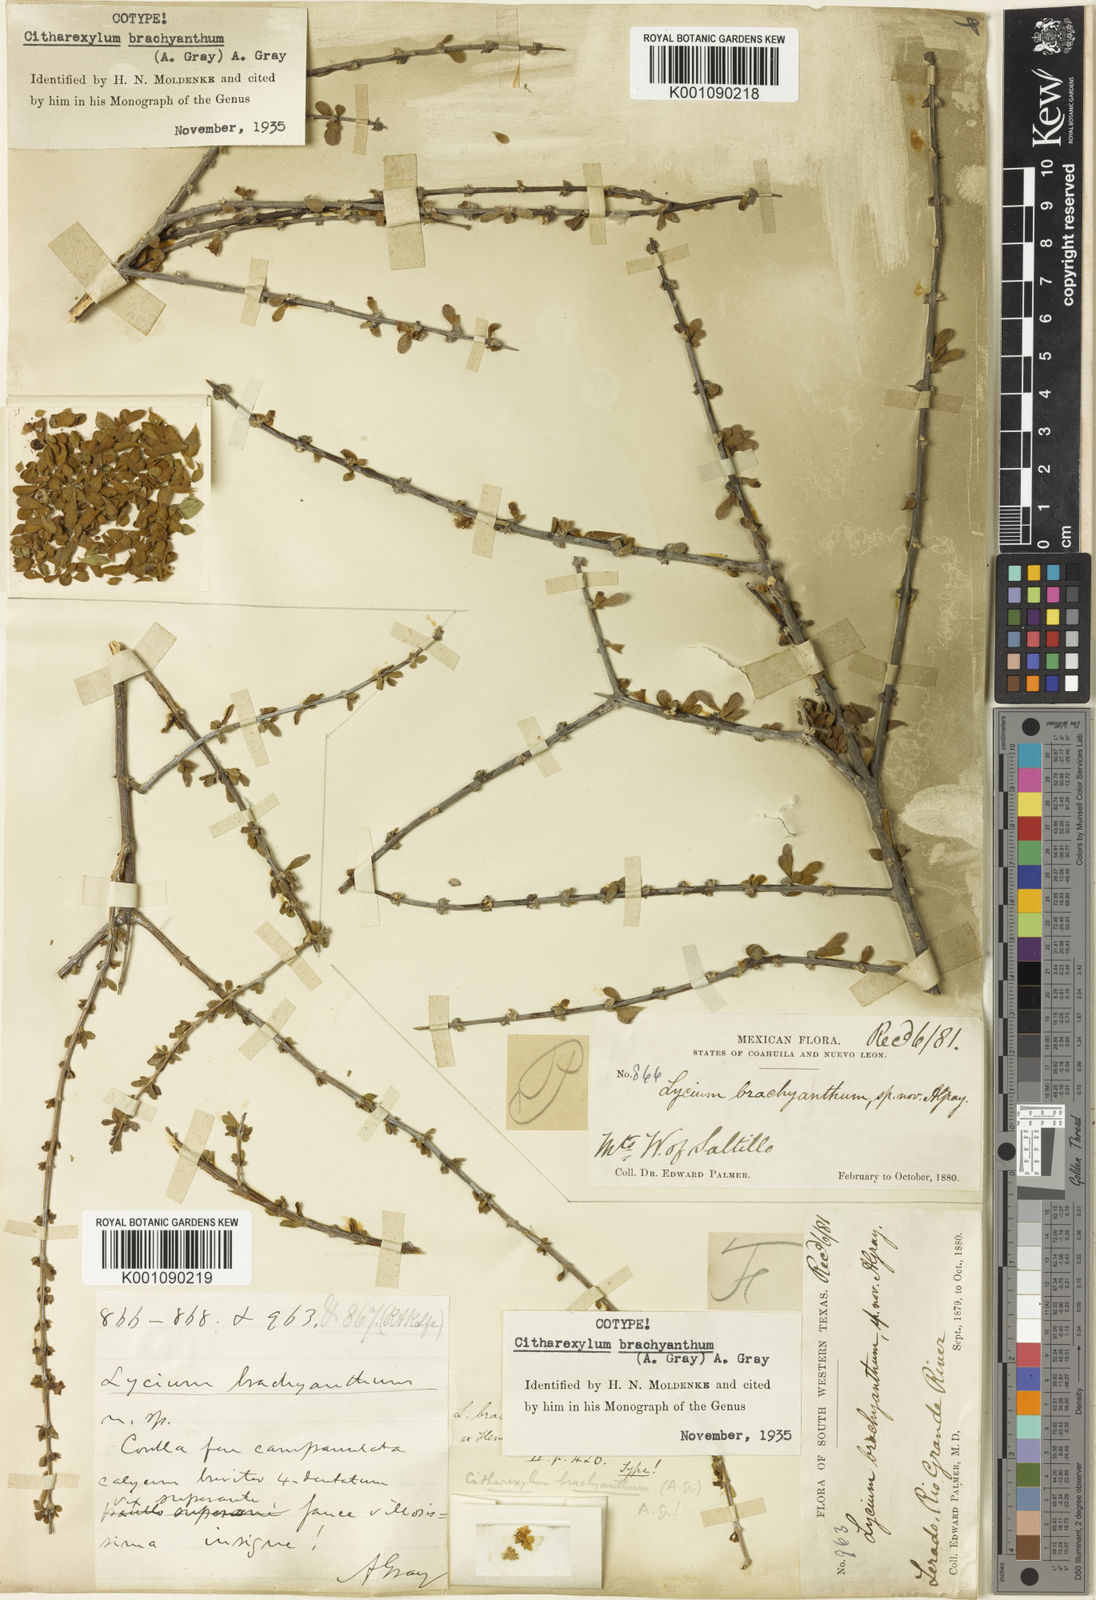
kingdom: Plantae
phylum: Tracheophyta
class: Magnoliopsida
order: Lamiales
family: Verbenaceae
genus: Citharexylum
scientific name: Citharexylum brachyanthum
